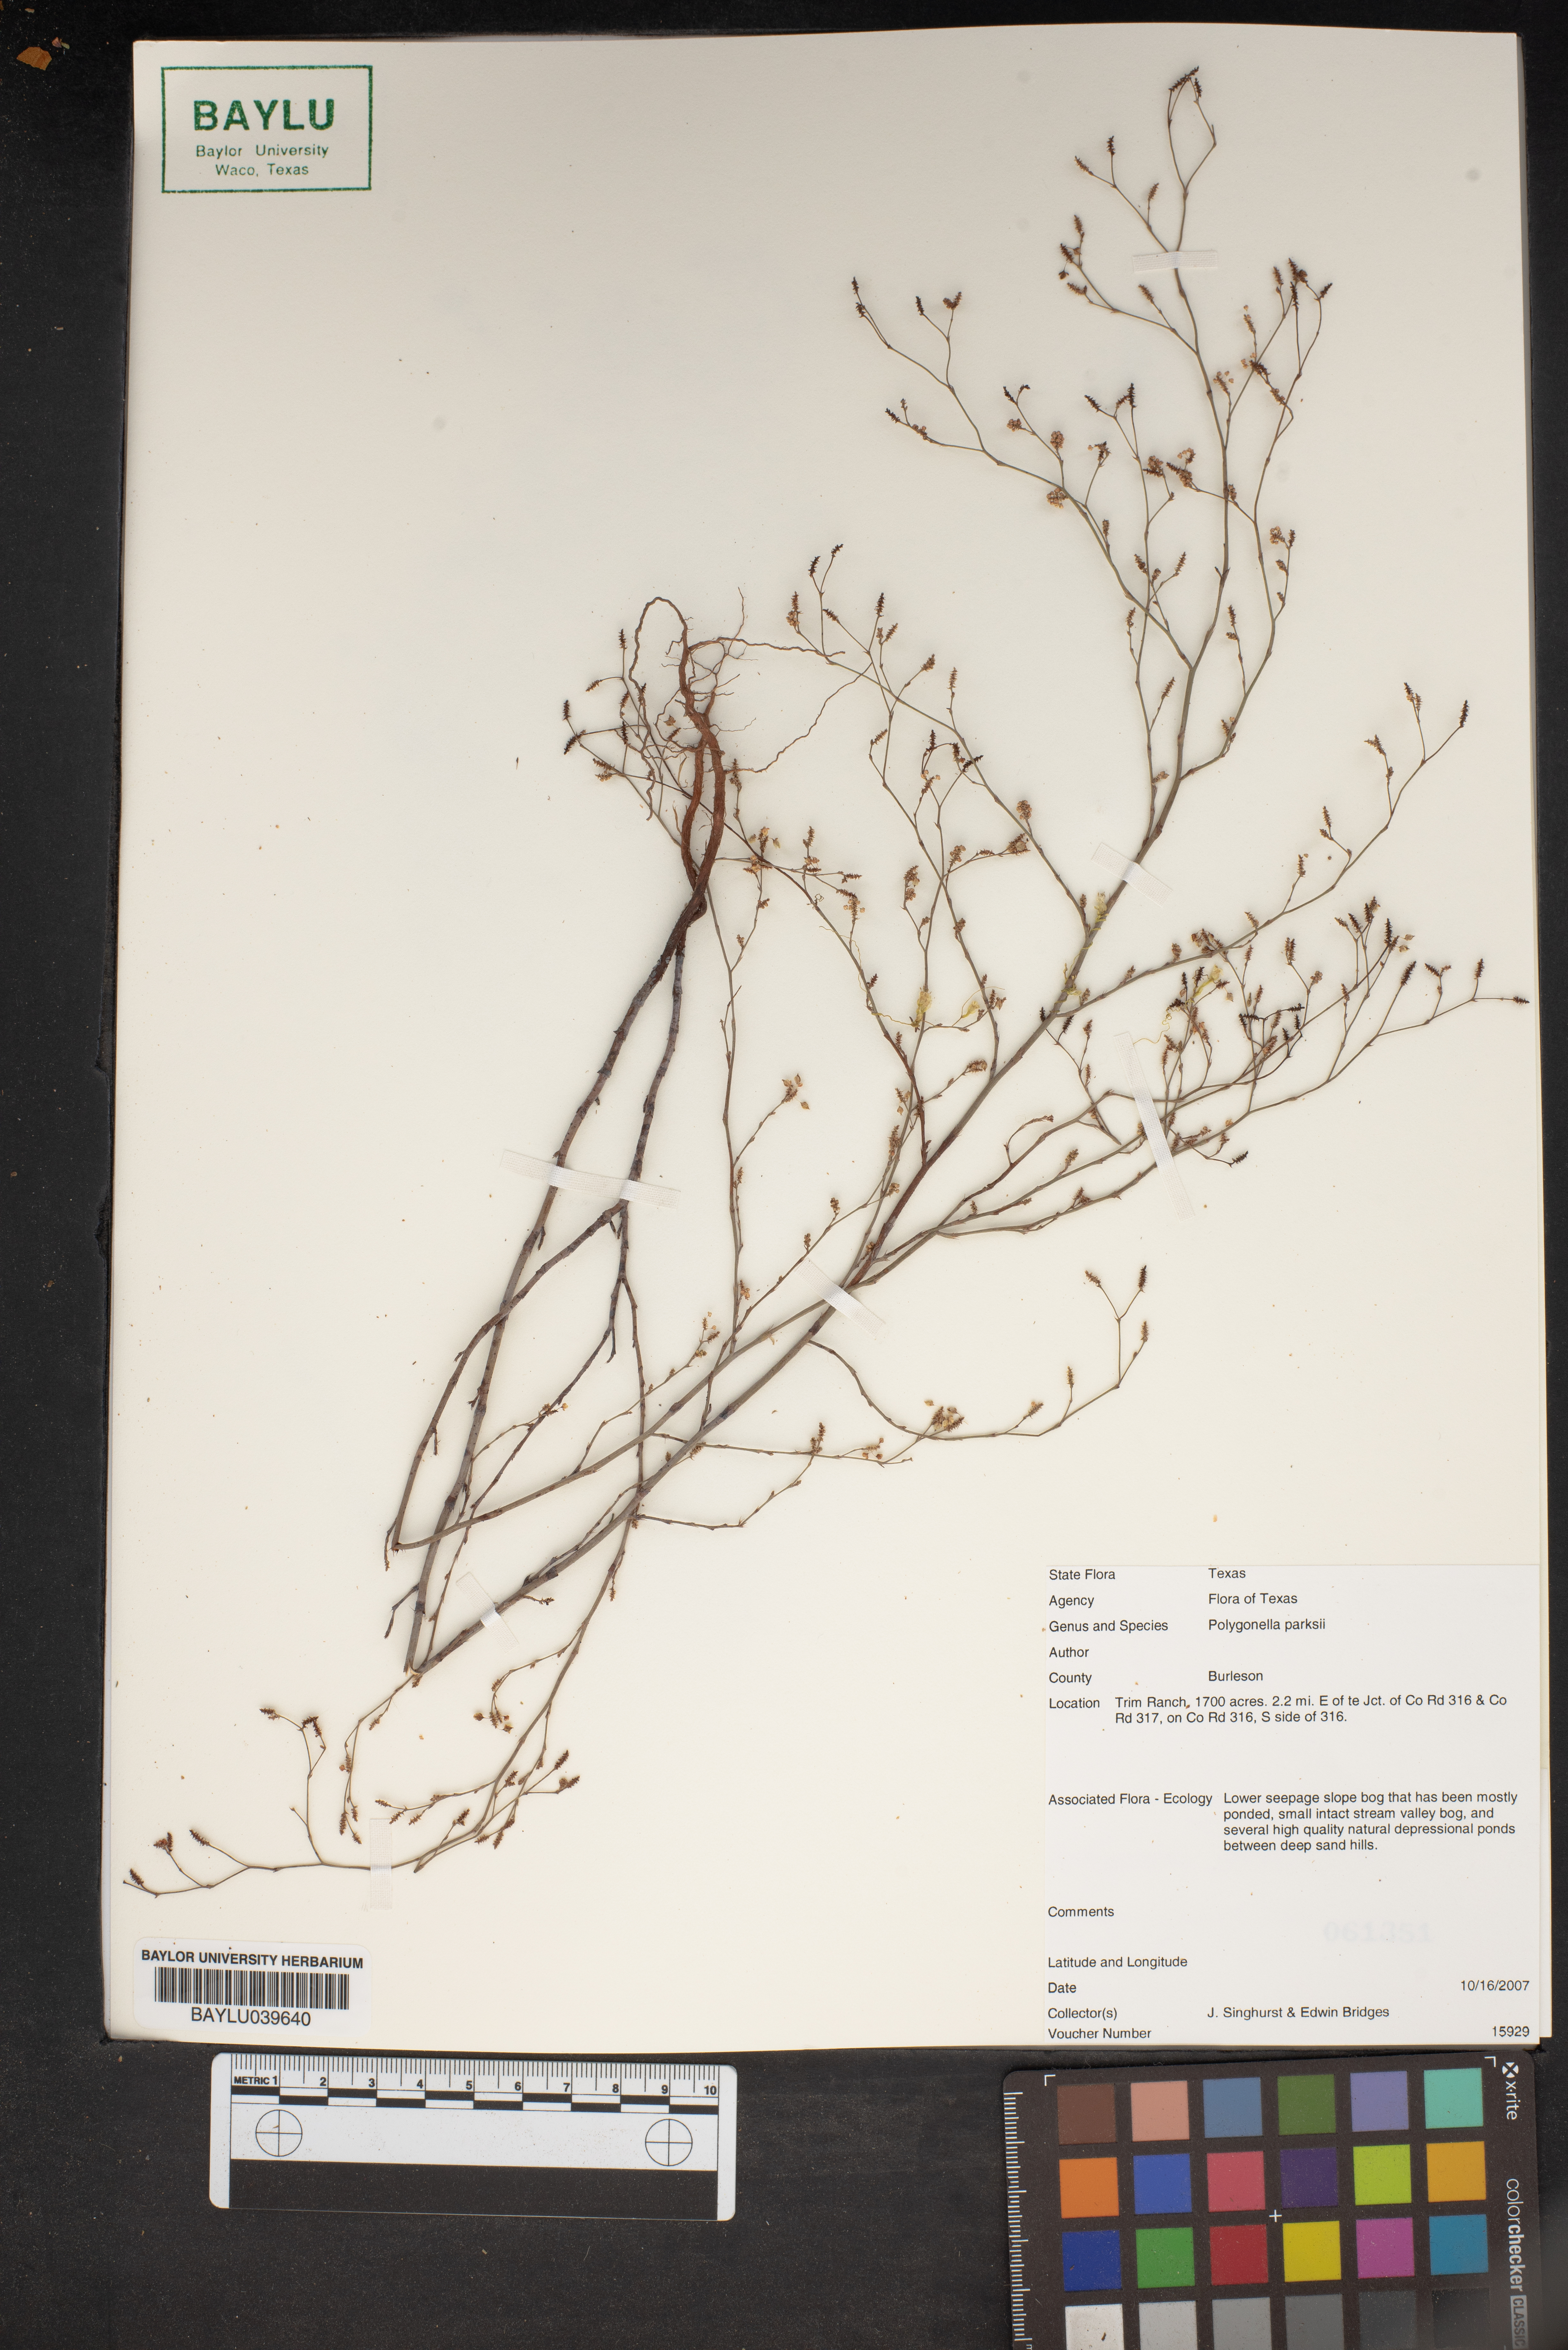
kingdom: Plantae
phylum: Tracheophyta
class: Magnoliopsida
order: Caryophyllales
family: Polygonaceae
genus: Polygonella
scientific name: Polygonella parksii
